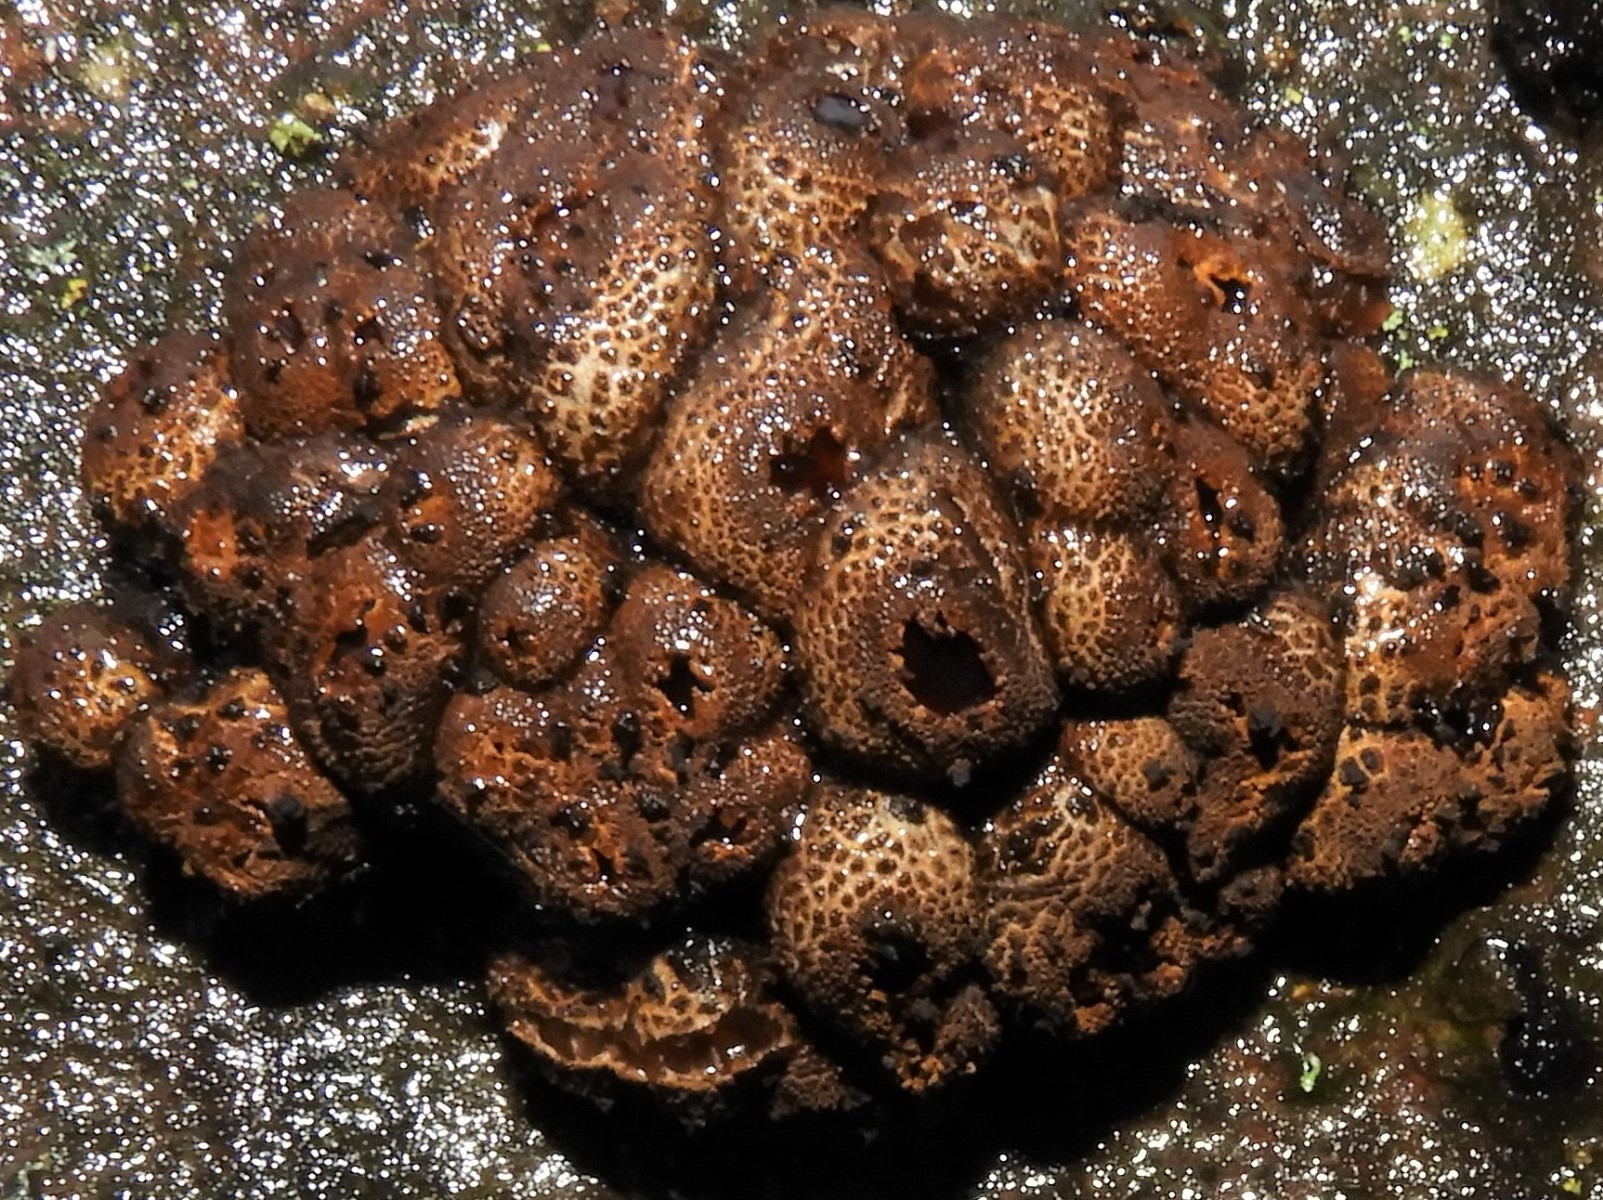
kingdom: Fungi
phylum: Ascomycota
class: Leotiomycetes
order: Phacidiales
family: Phacidiaceae
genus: Bulgaria
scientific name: Bulgaria inquinans
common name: afsmittende topsvamp
